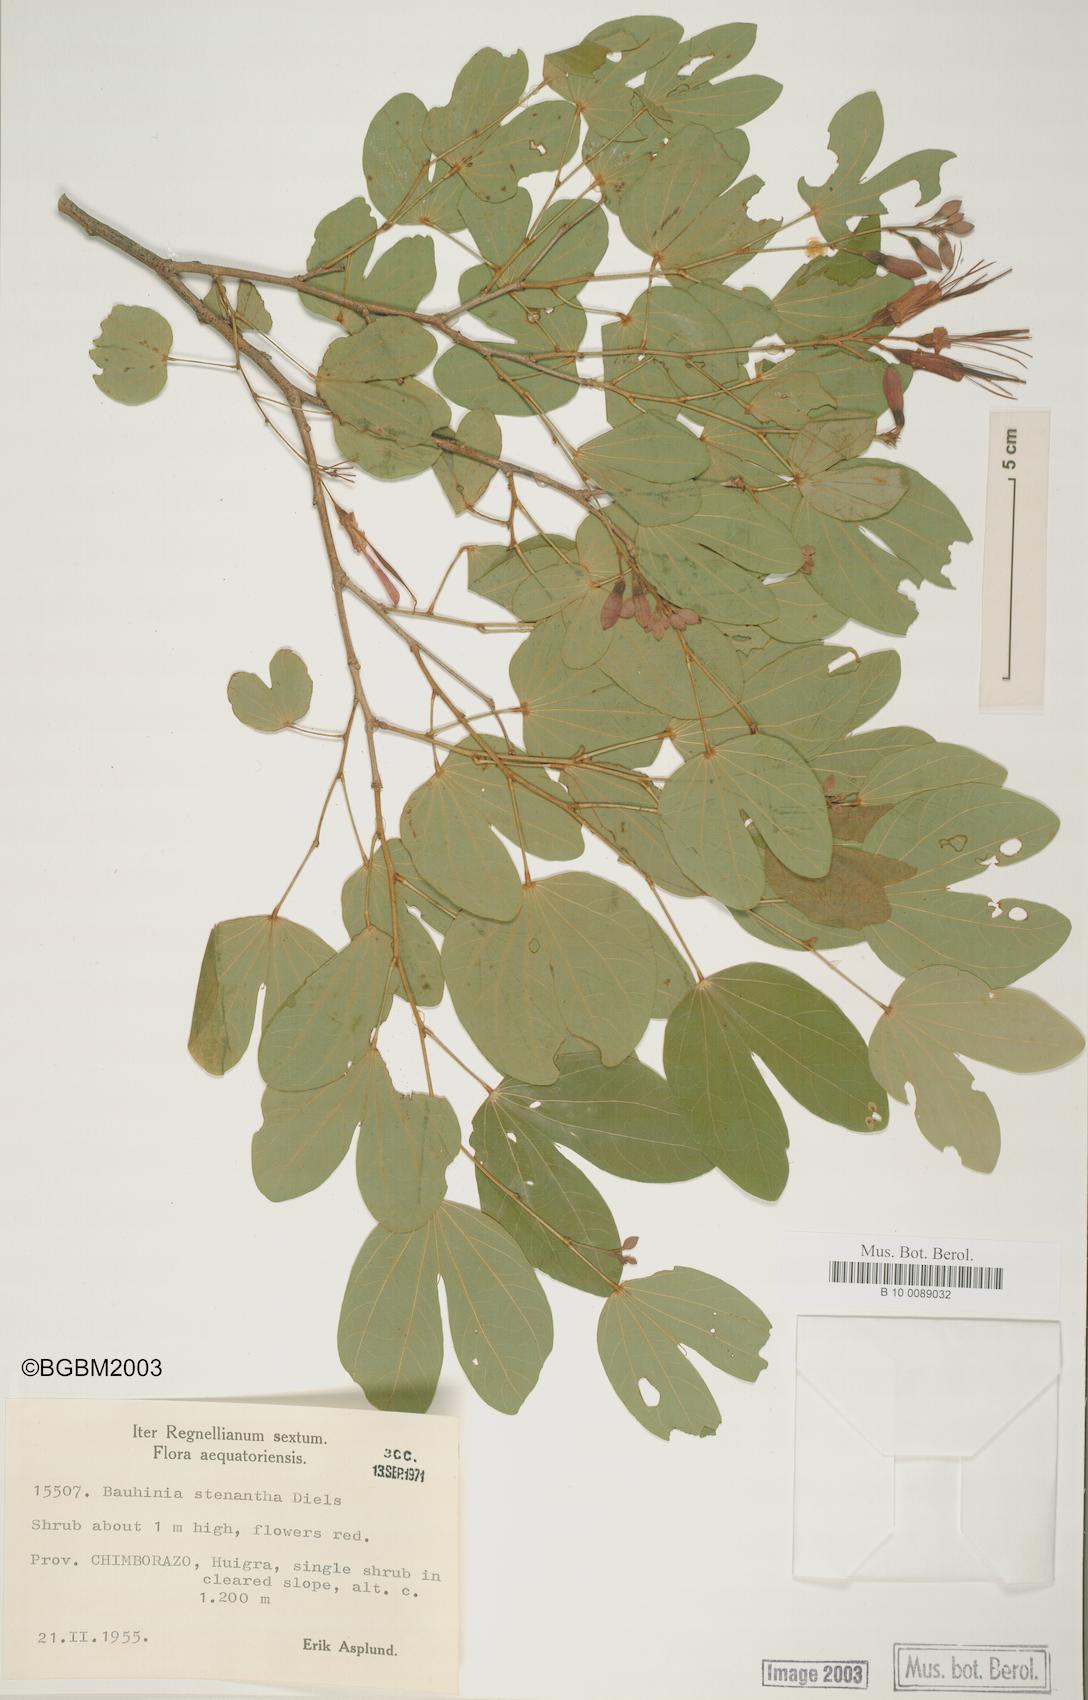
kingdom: Plantae
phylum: Tracheophyta
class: Magnoliopsida
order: Fabales
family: Fabaceae
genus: Bauhinia
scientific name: Bauhinia stenantha
